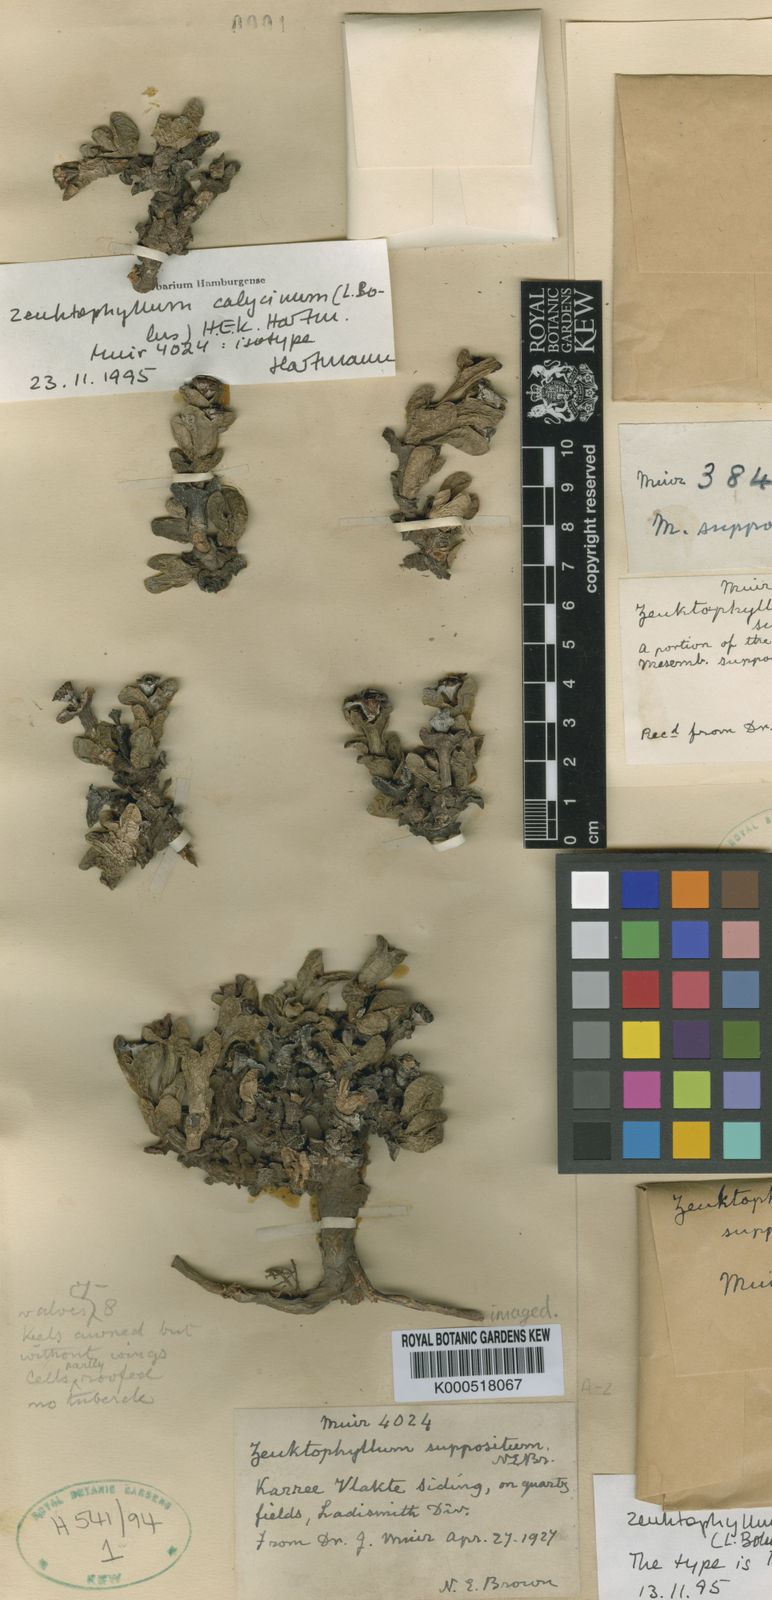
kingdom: Plantae
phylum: Tracheophyta
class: Magnoliopsida
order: Caryophyllales
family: Aizoaceae
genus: Zeuktophyllum
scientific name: Zeuktophyllum suppositum
